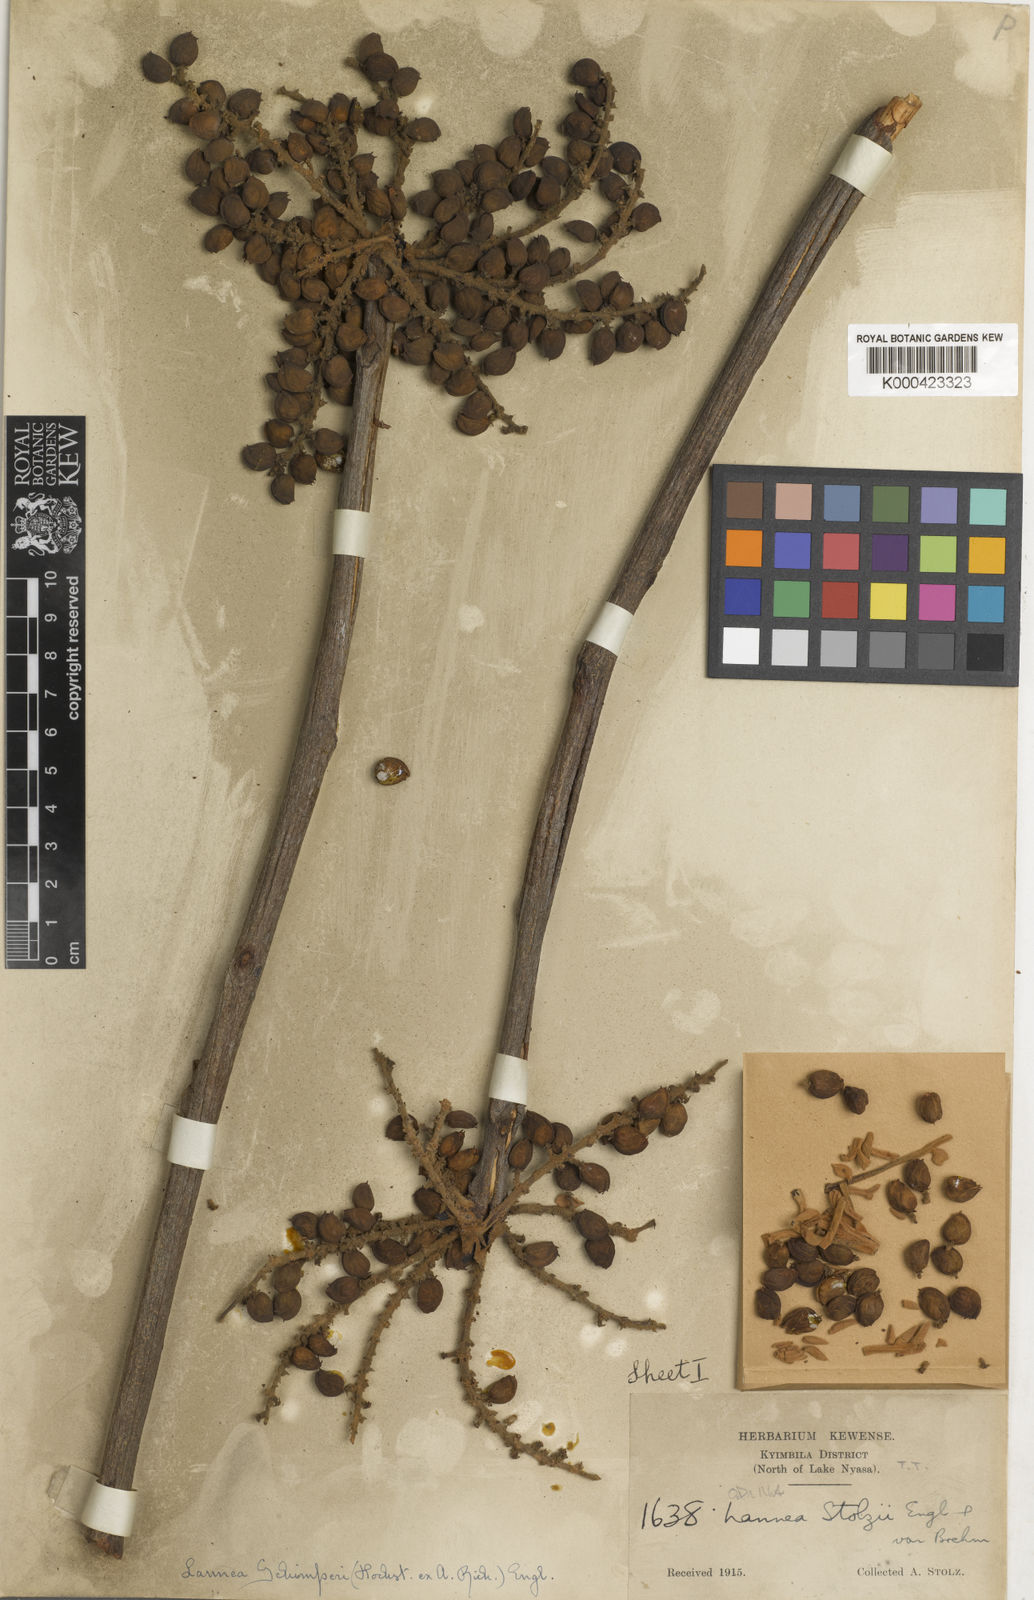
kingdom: Plantae
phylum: Tracheophyta
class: Magnoliopsida
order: Sapindales
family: Anacardiaceae
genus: Lannea
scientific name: Lannea schimperi
